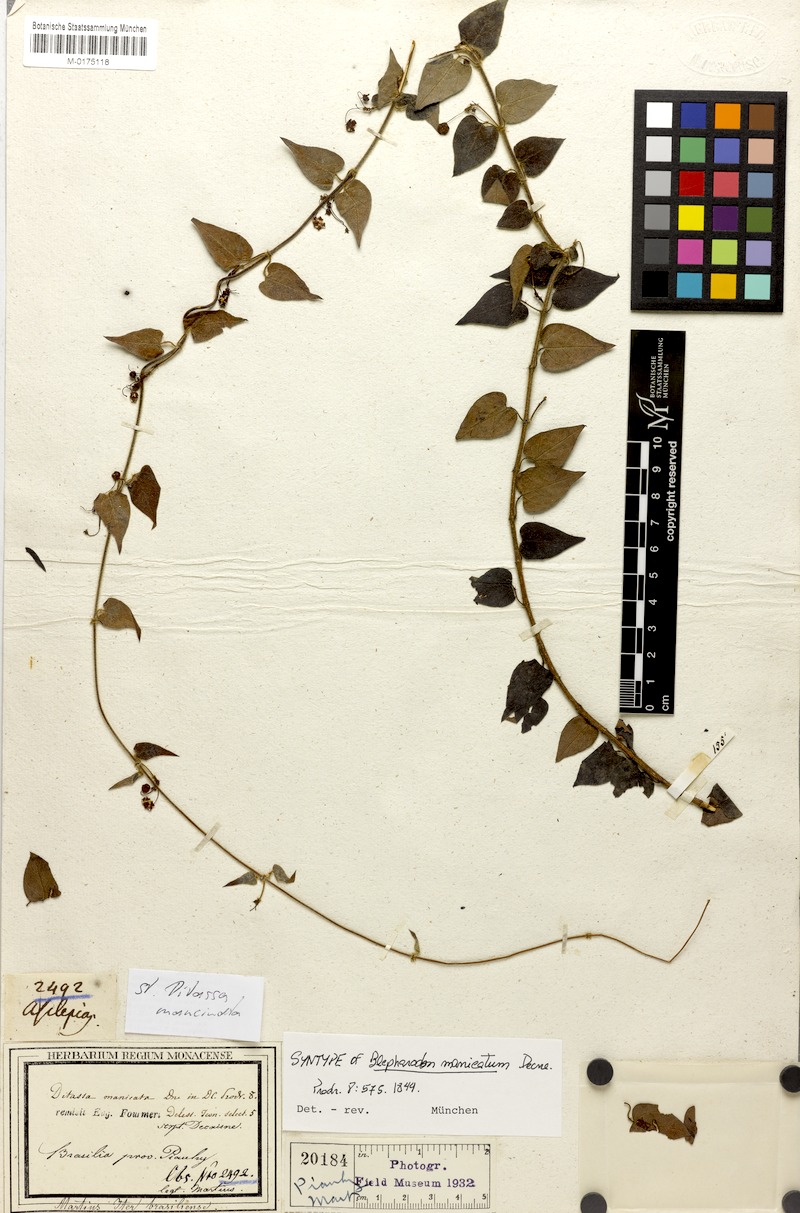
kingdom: Plantae
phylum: Tracheophyta
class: Magnoliopsida
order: Gentianales
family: Apocynaceae
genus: Blepharodon
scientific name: Blepharodon manicatum
